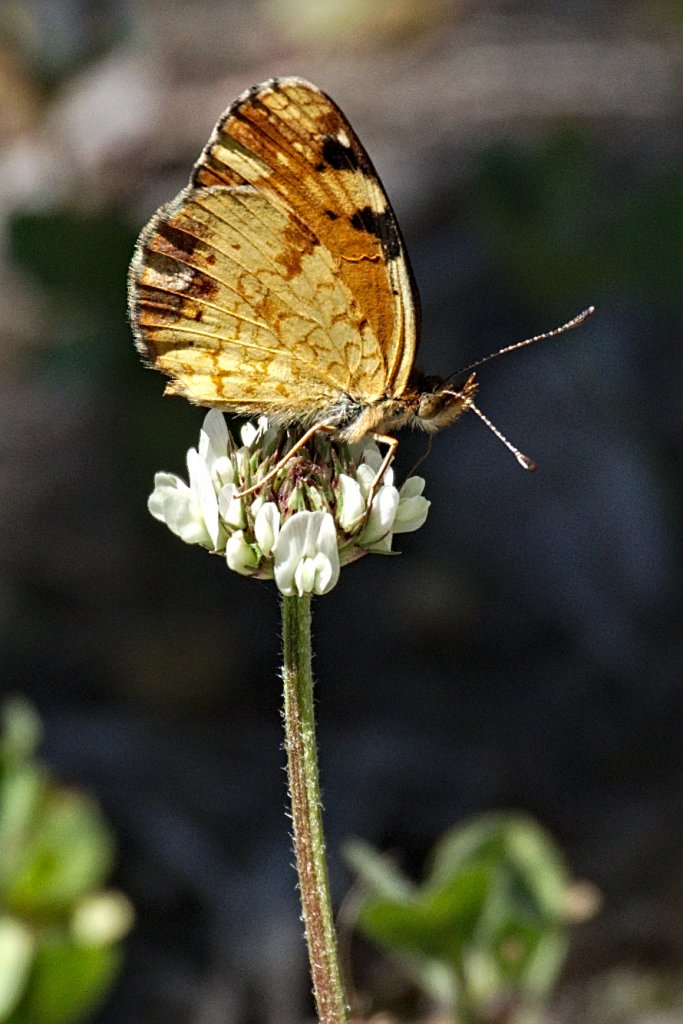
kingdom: Animalia
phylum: Arthropoda
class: Insecta
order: Lepidoptera
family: Nymphalidae
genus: Phyciodes
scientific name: Phyciodes tharos
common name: Northern Crescent
